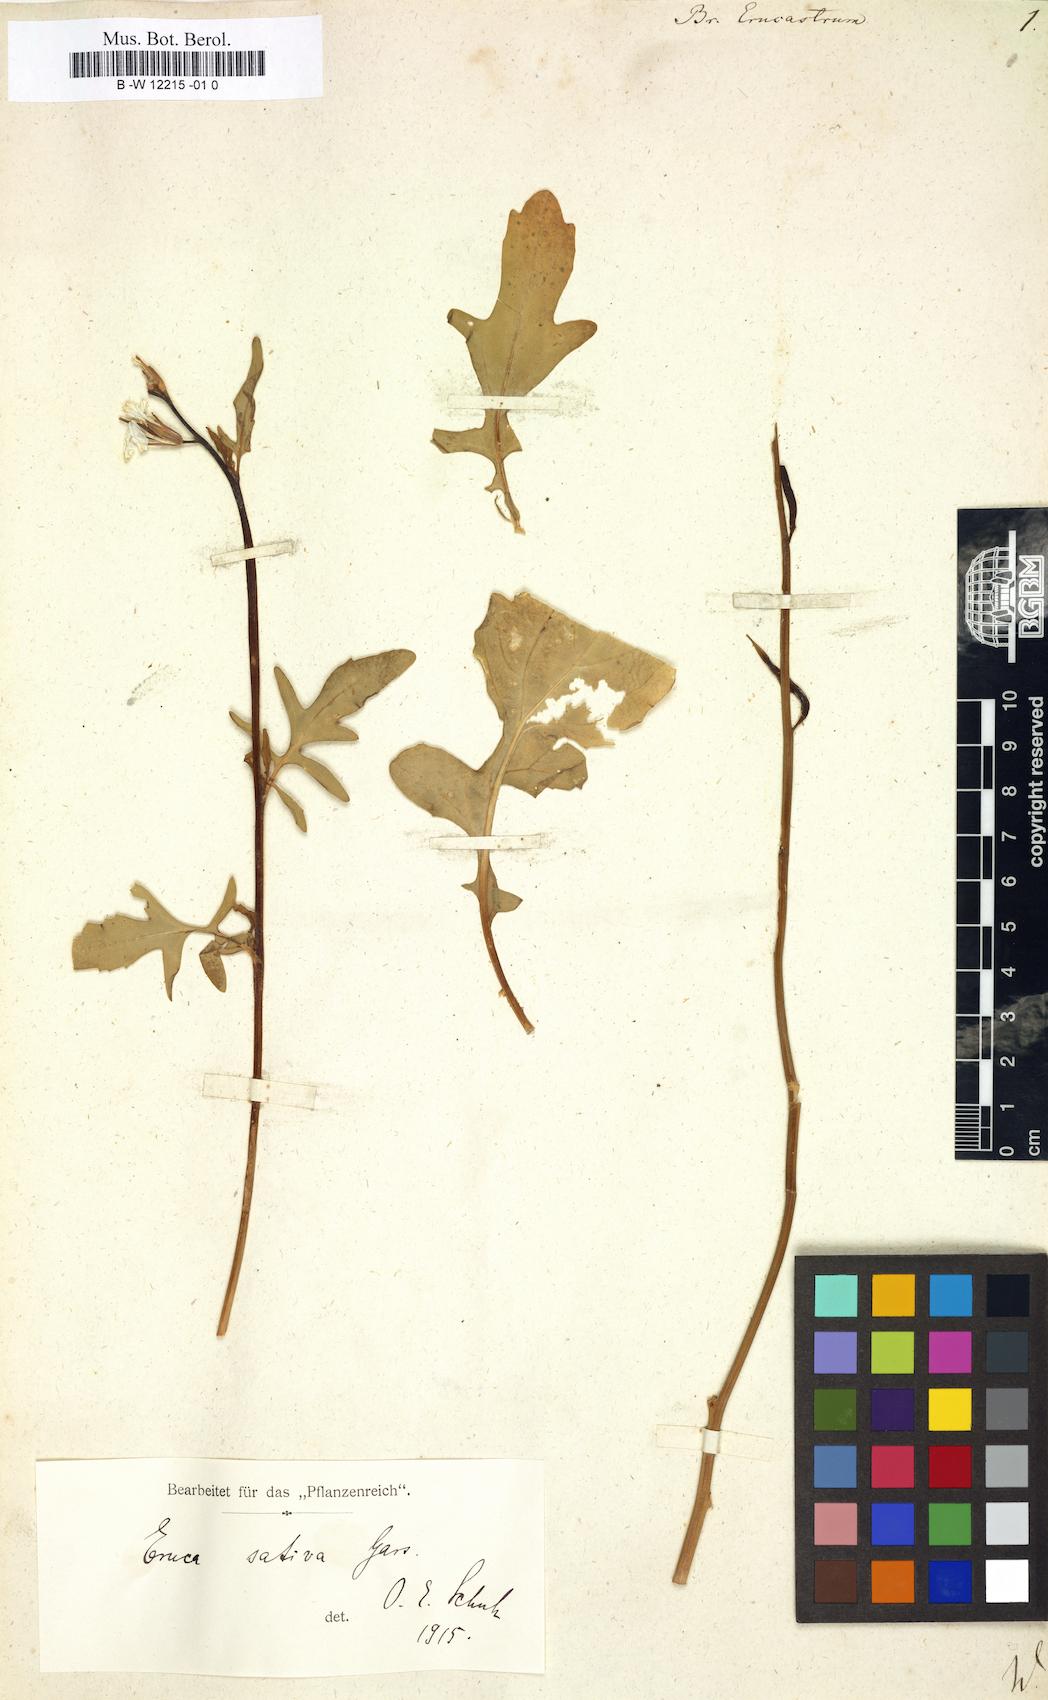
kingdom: Plantae
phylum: Tracheophyta
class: Magnoliopsida
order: Brassicales
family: Brassicaceae
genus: Brassica
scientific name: Brassica erucastrum
